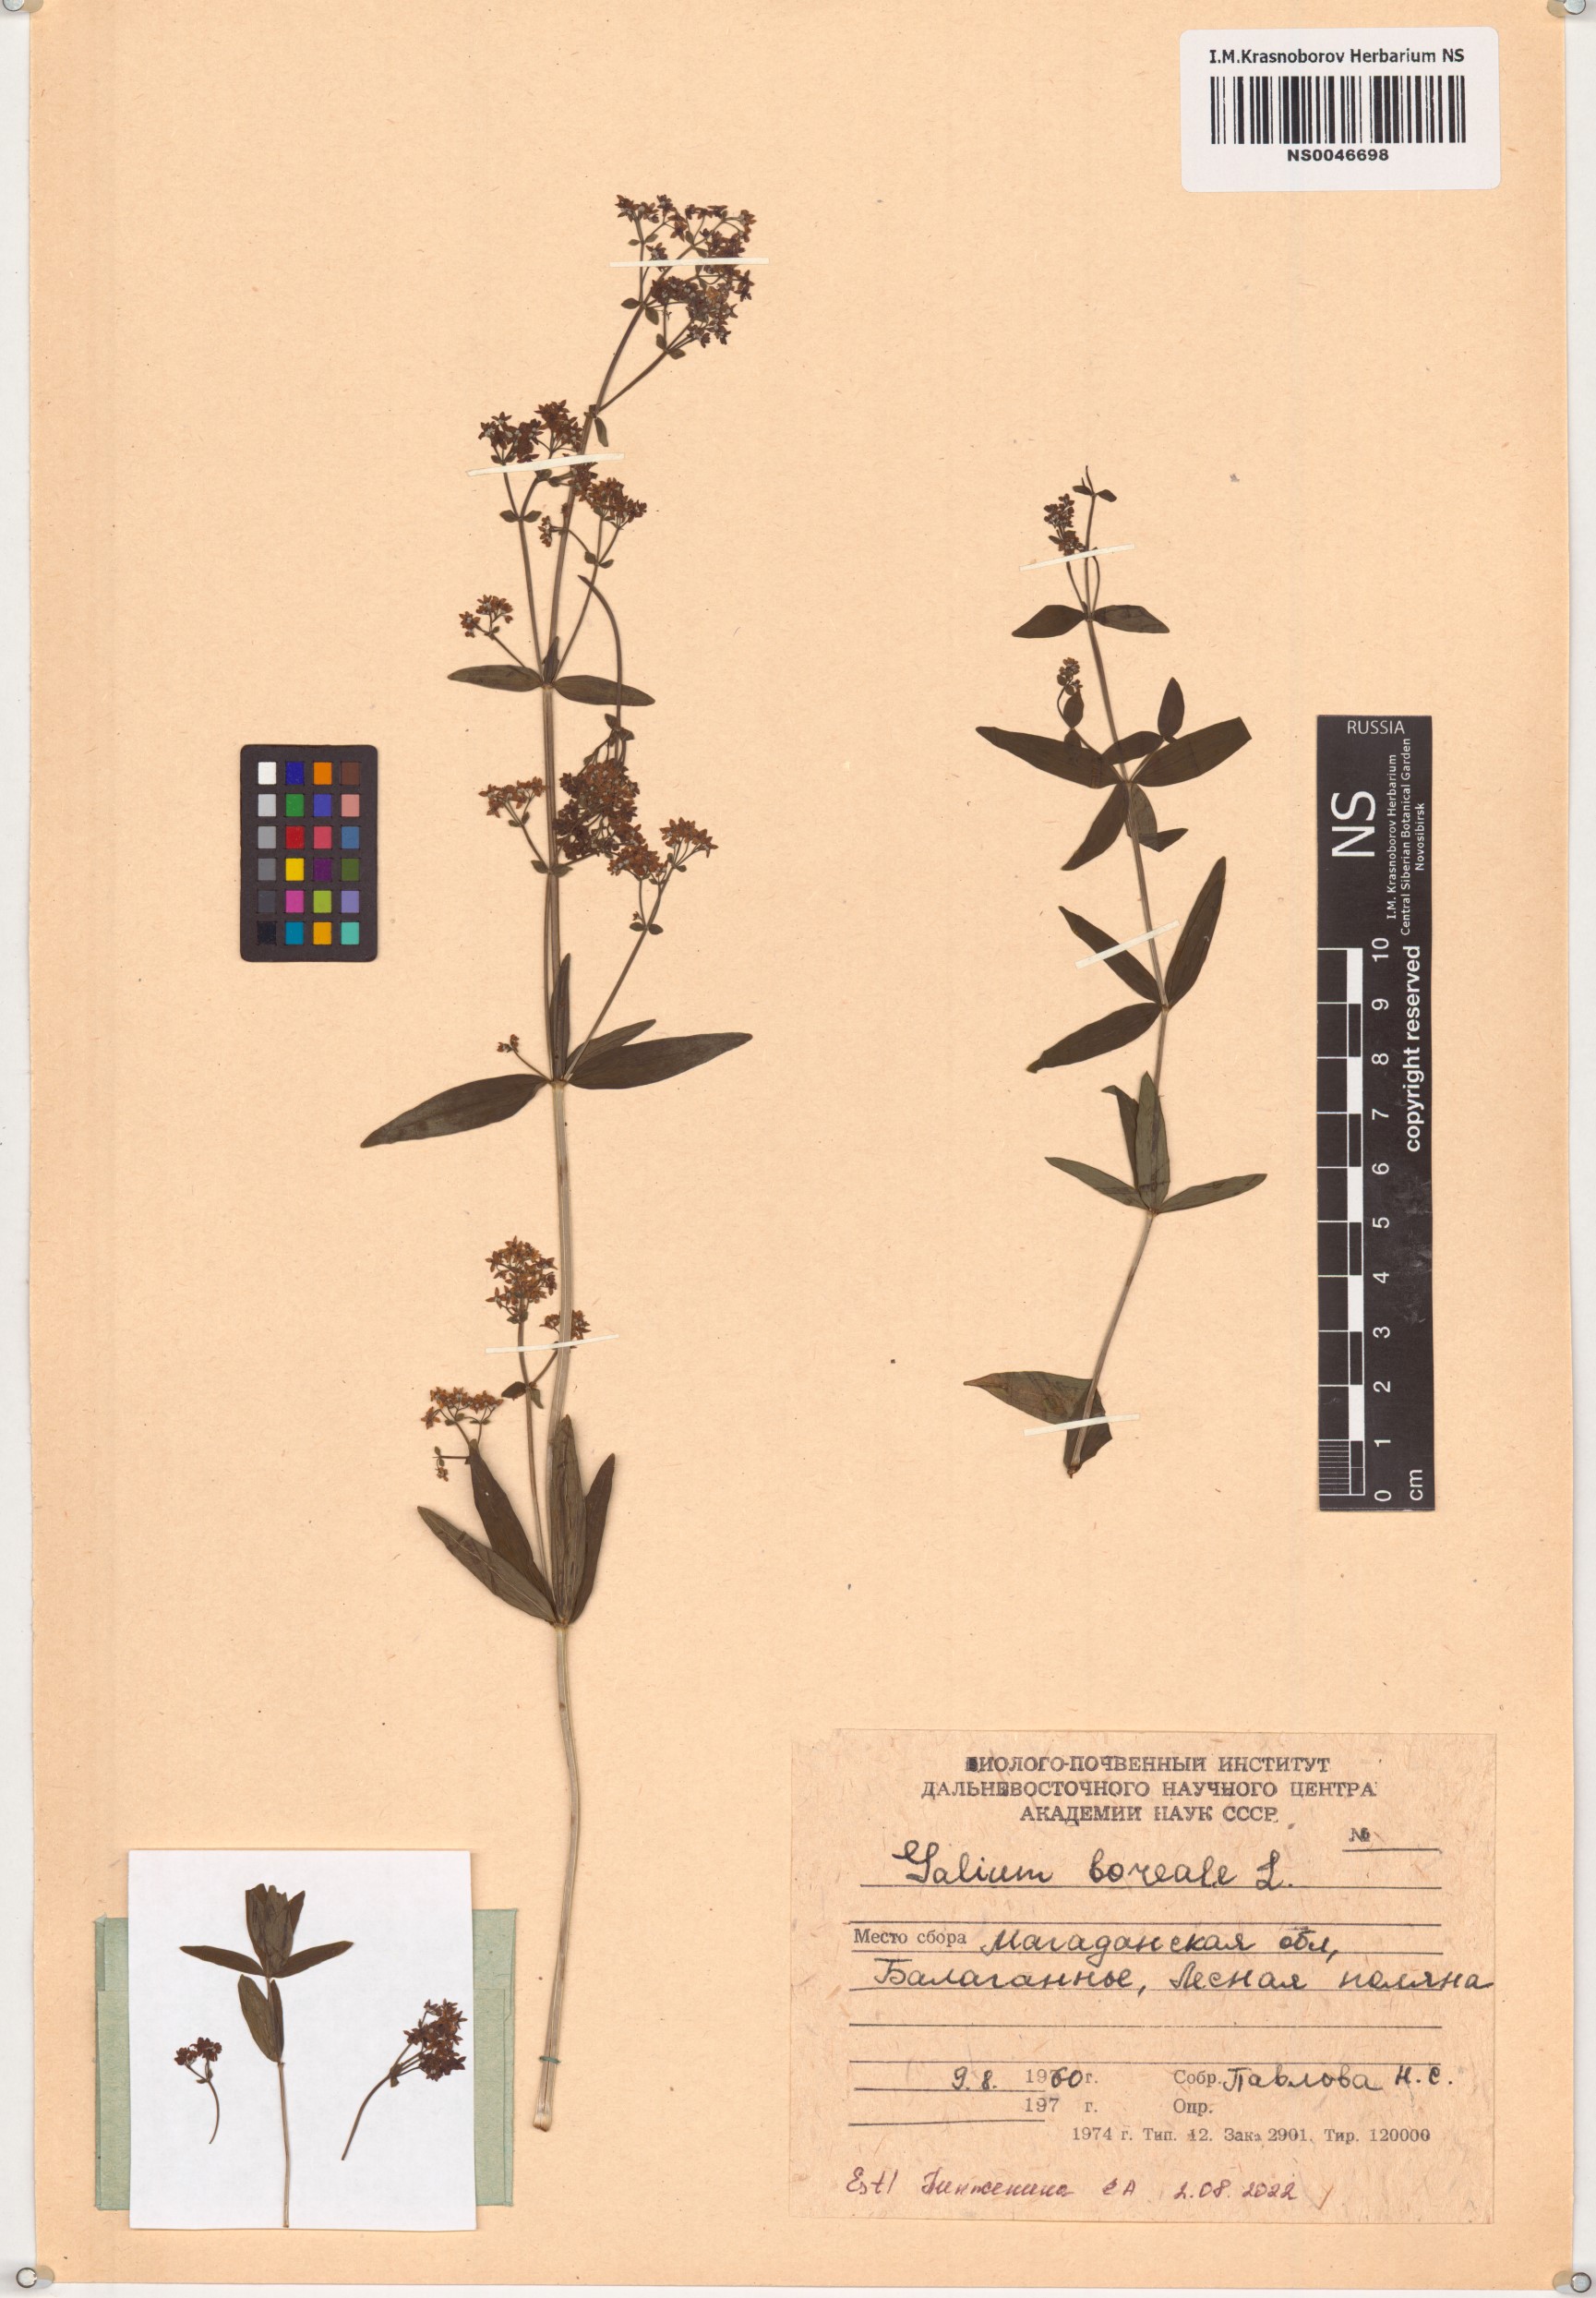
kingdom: Plantae
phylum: Tracheophyta
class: Magnoliopsida
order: Gentianales
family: Rubiaceae
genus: Galium
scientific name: Galium boreale
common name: Northern bedstraw
